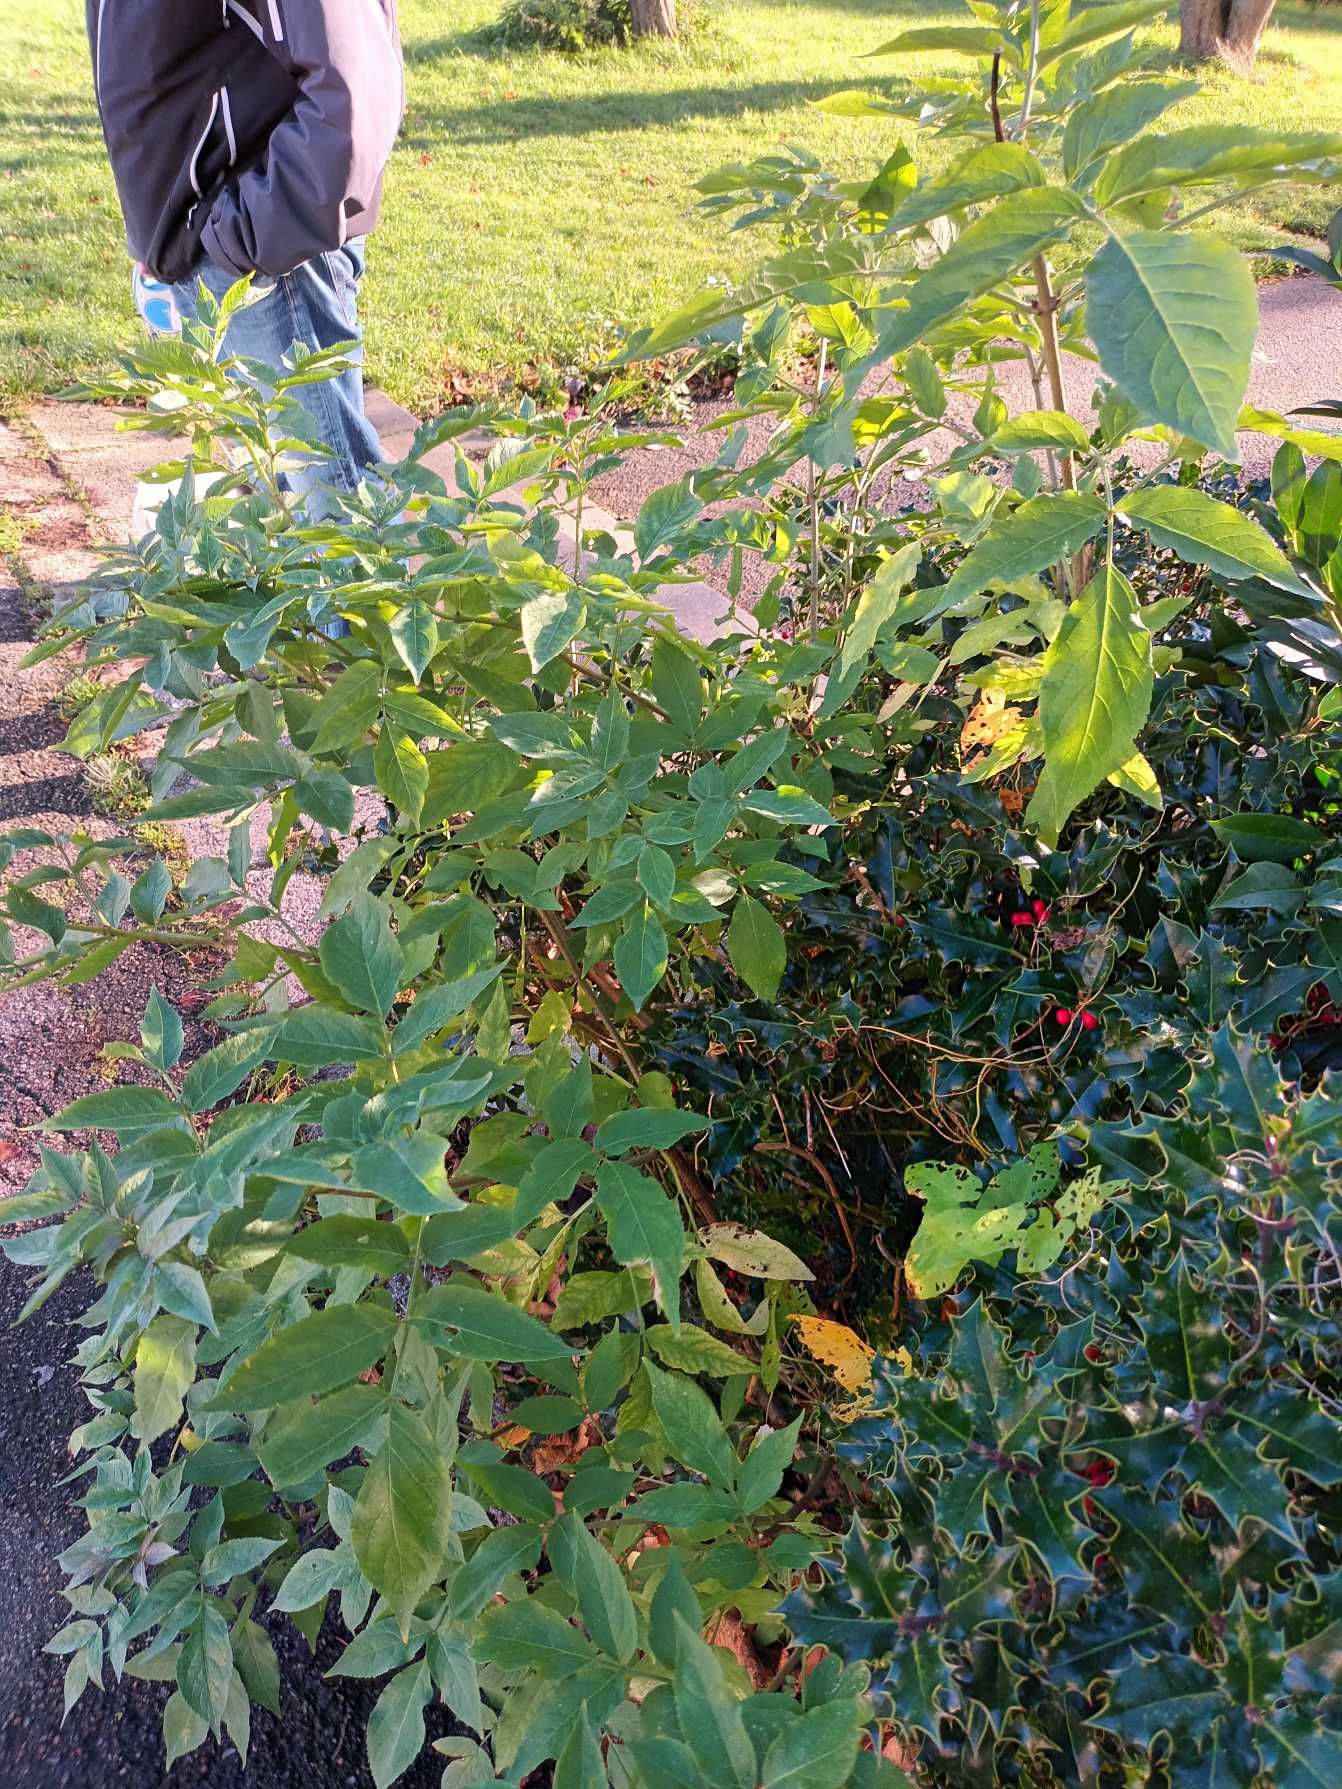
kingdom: Plantae
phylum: Tracheophyta
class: Magnoliopsida
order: Dipsacales
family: Viburnaceae
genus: Sambucus
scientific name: Sambucus nigra
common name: Almindelig hyld
